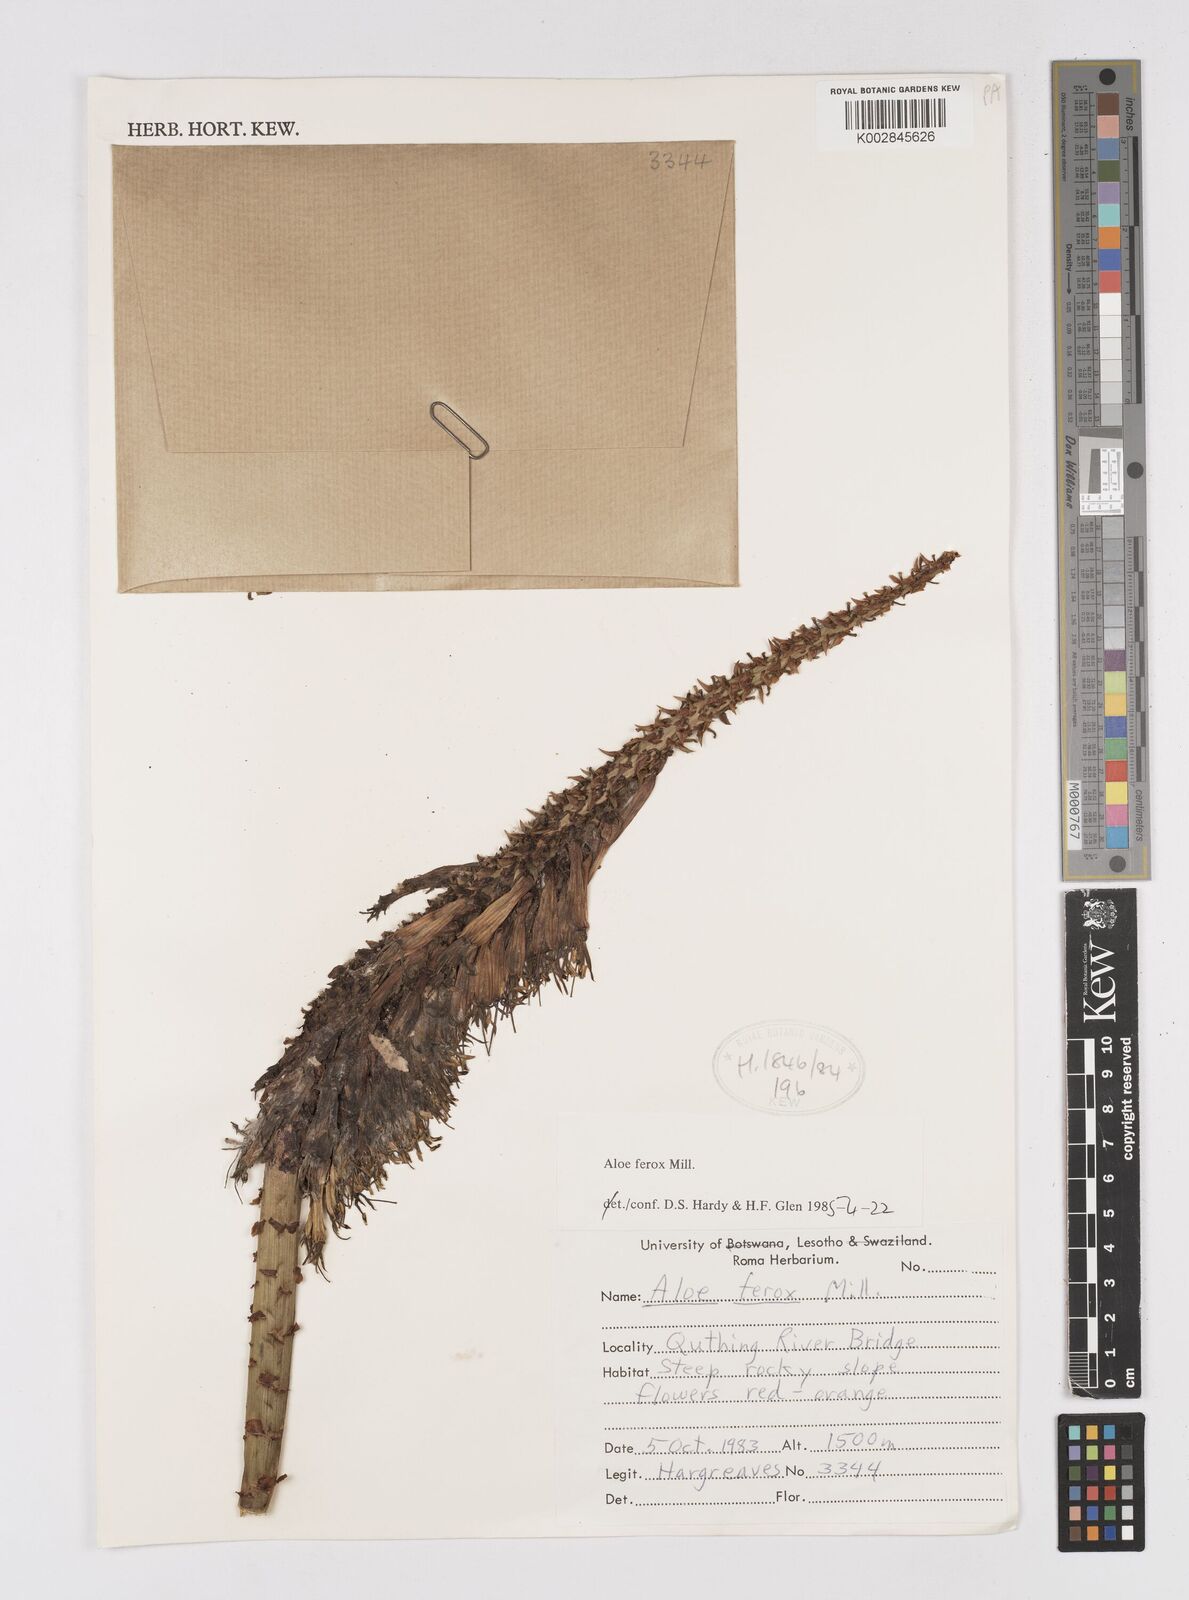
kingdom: Plantae
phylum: Tracheophyta
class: Liliopsida
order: Asparagales
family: Asphodelaceae
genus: Aloe
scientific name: Aloe ferox
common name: Bitter aloe
